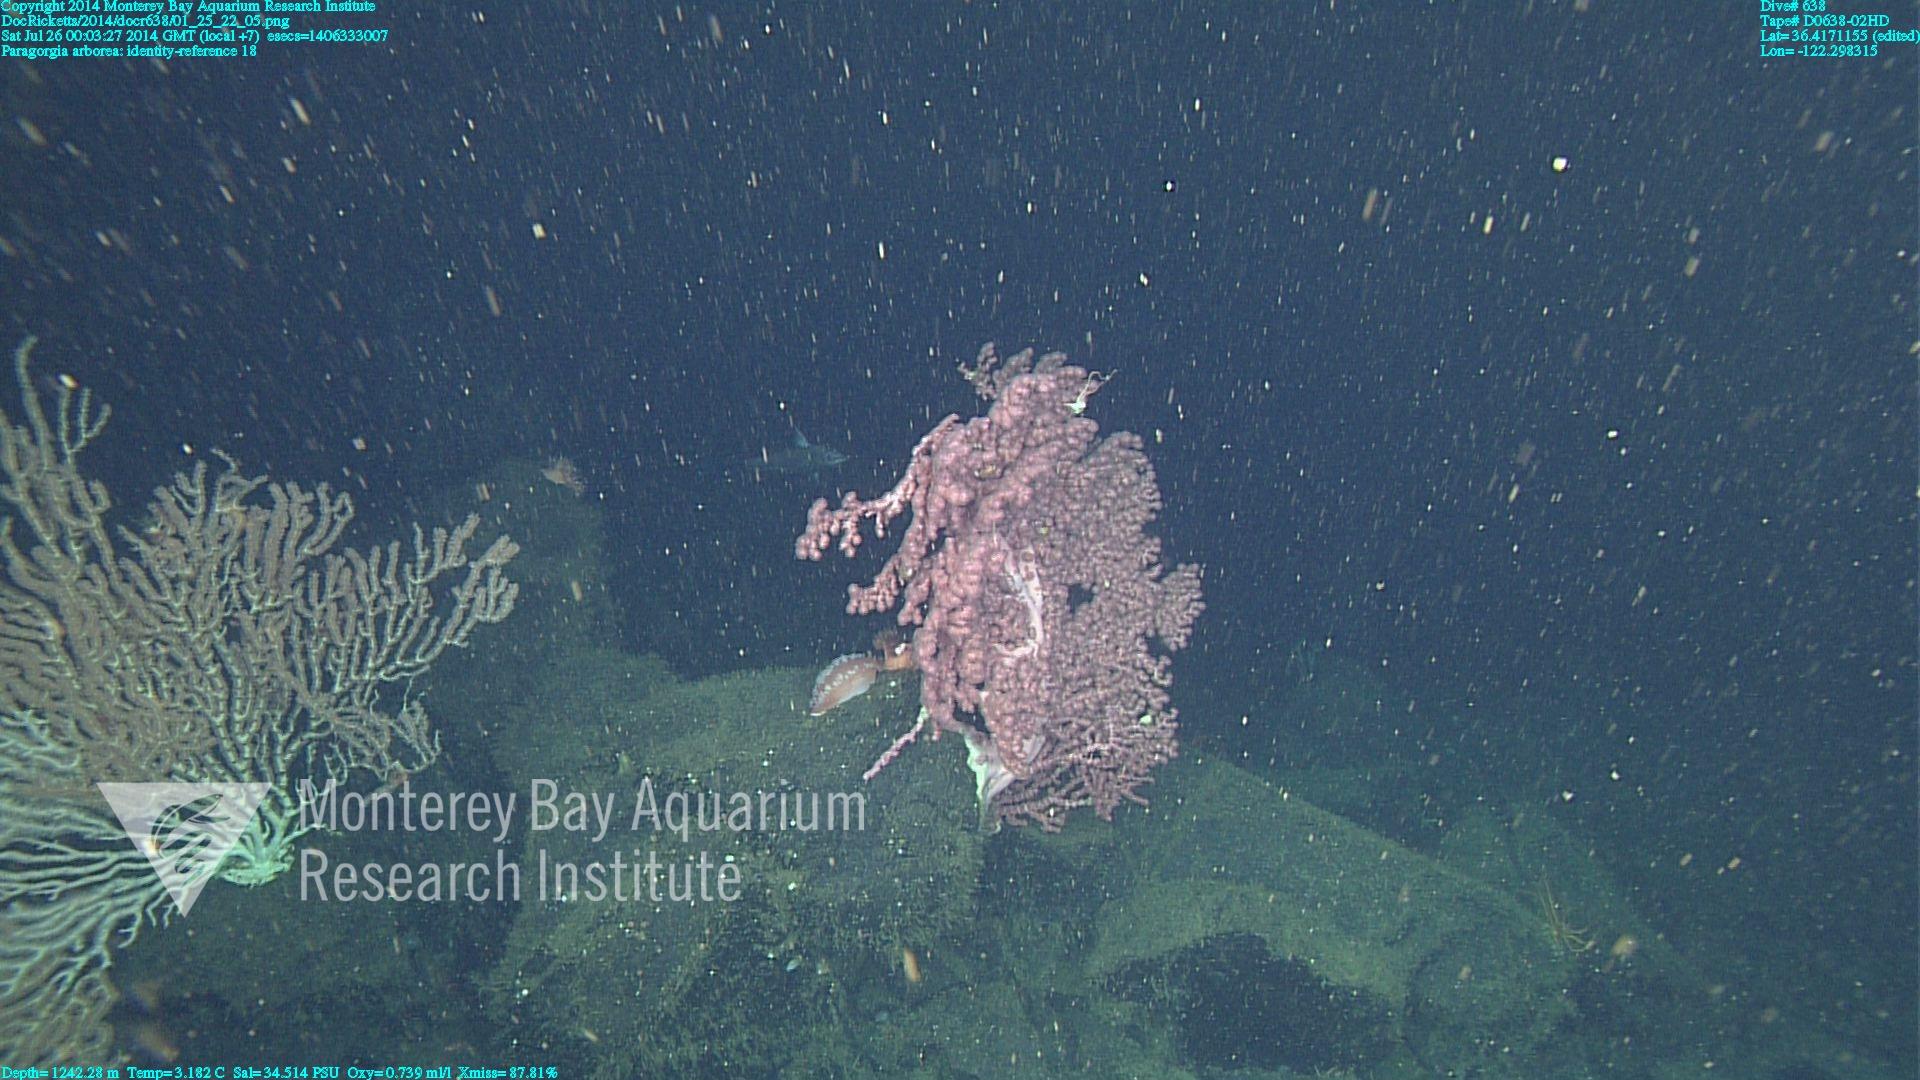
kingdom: Animalia
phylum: Cnidaria
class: Anthozoa
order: Scleralcyonacea
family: Coralliidae
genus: Paragorgia
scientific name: Paragorgia arborea
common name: Bubble gum coral
